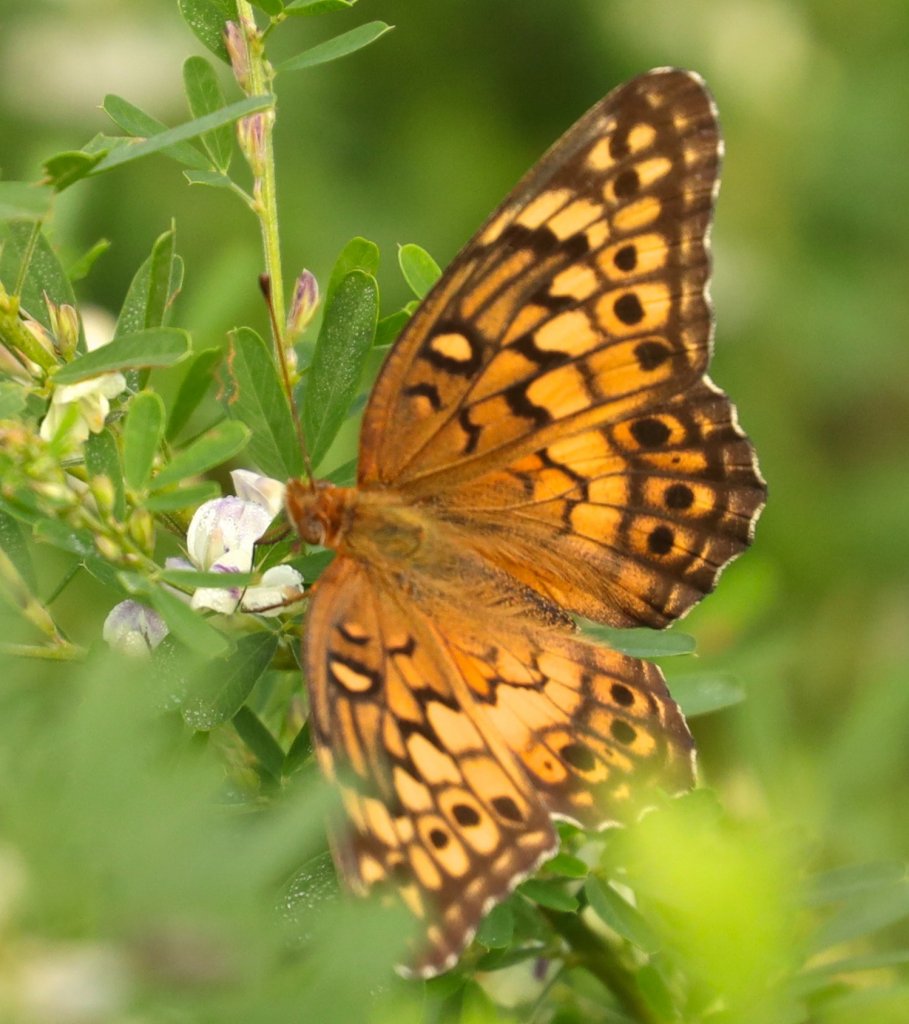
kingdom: Animalia
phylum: Arthropoda
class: Insecta
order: Lepidoptera
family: Nymphalidae
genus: Euptoieta
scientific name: Euptoieta claudia
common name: Variegated Fritillary
